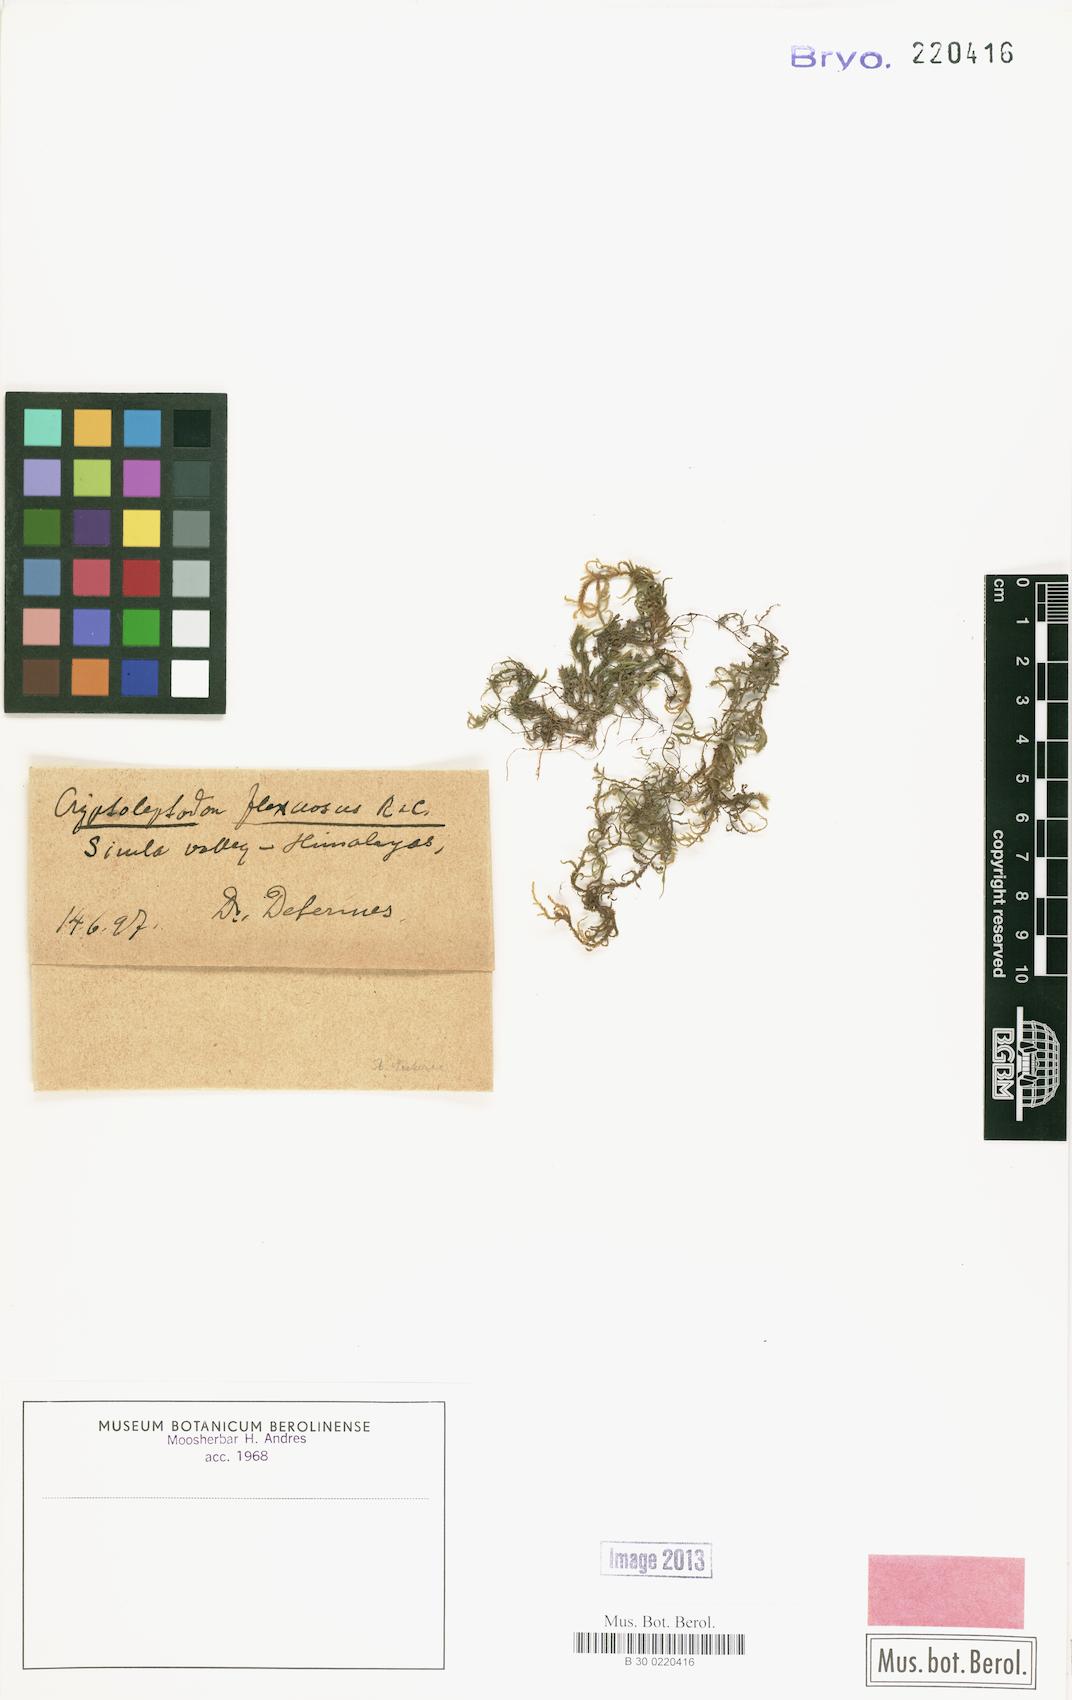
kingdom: Plantae
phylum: Bryophyta
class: Bryopsida
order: Hypnales
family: Neckeraceae
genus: Leptodon
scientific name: Leptodon pluvinii
